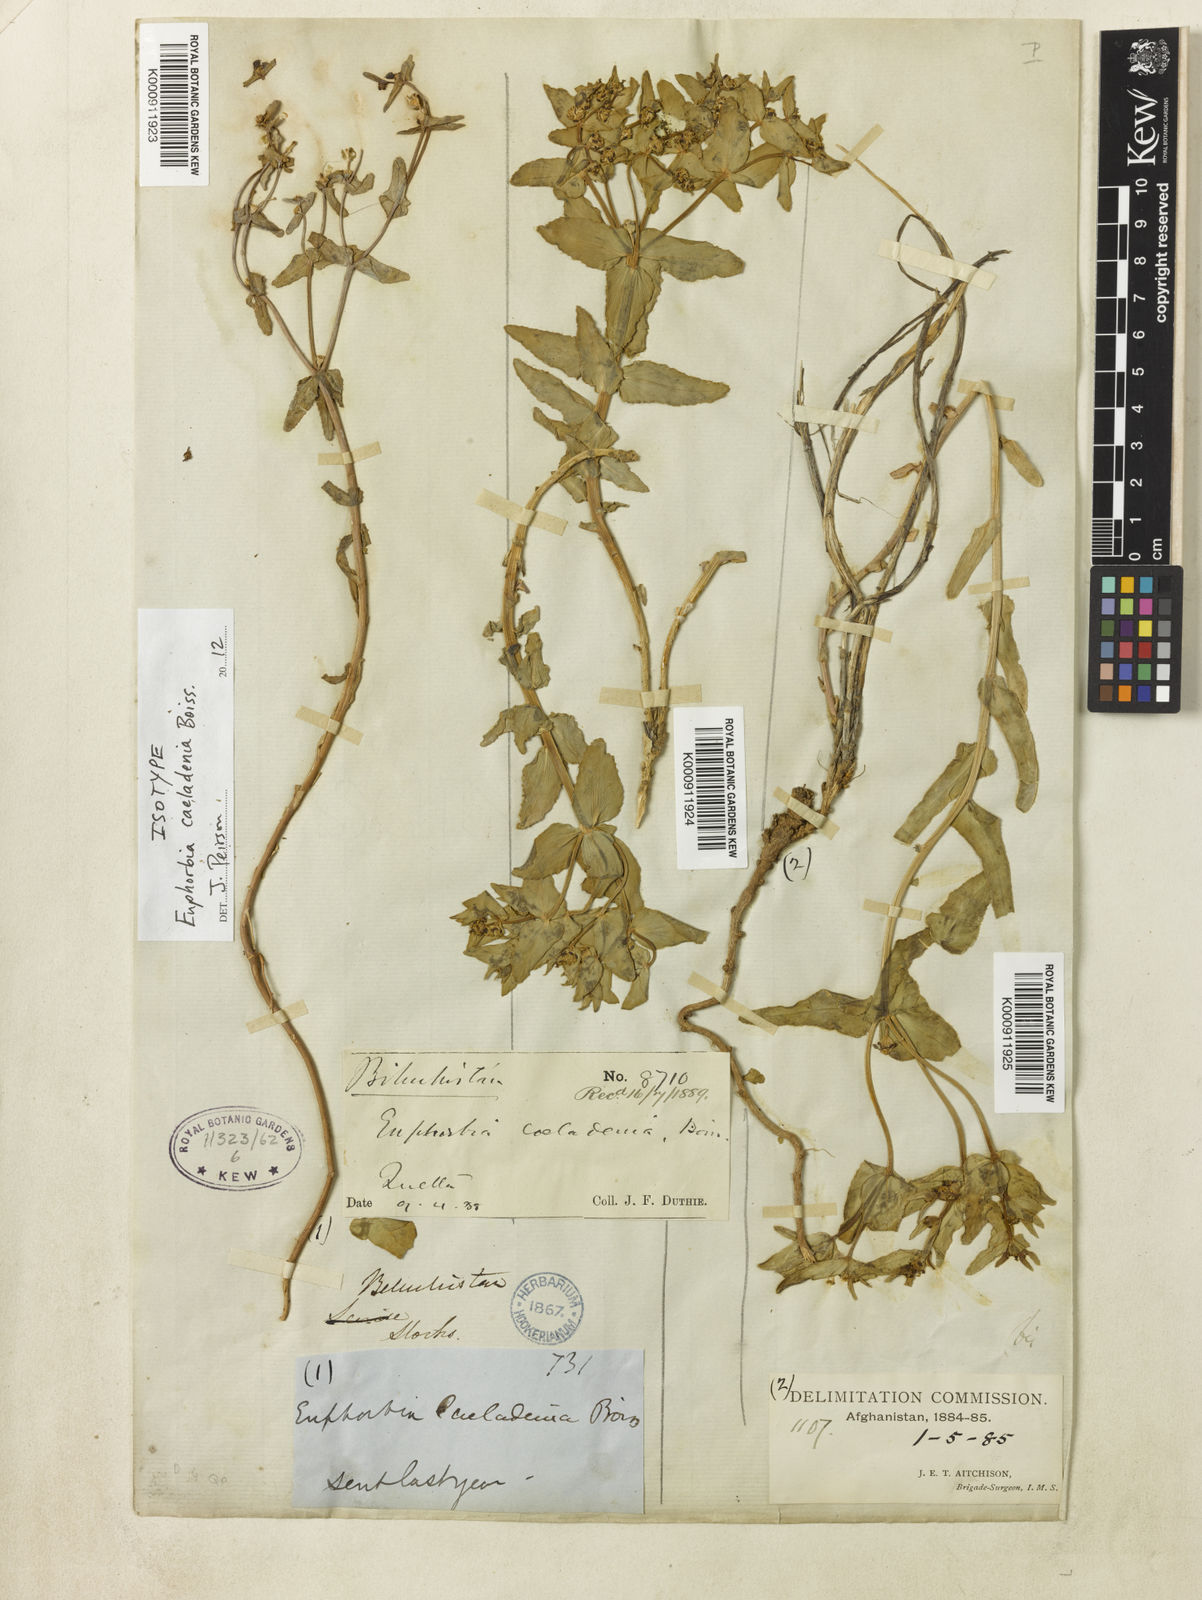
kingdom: Plantae
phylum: Tracheophyta
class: Magnoliopsida
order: Malpighiales
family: Euphorbiaceae
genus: Euphorbia
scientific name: Euphorbia caeladenia
